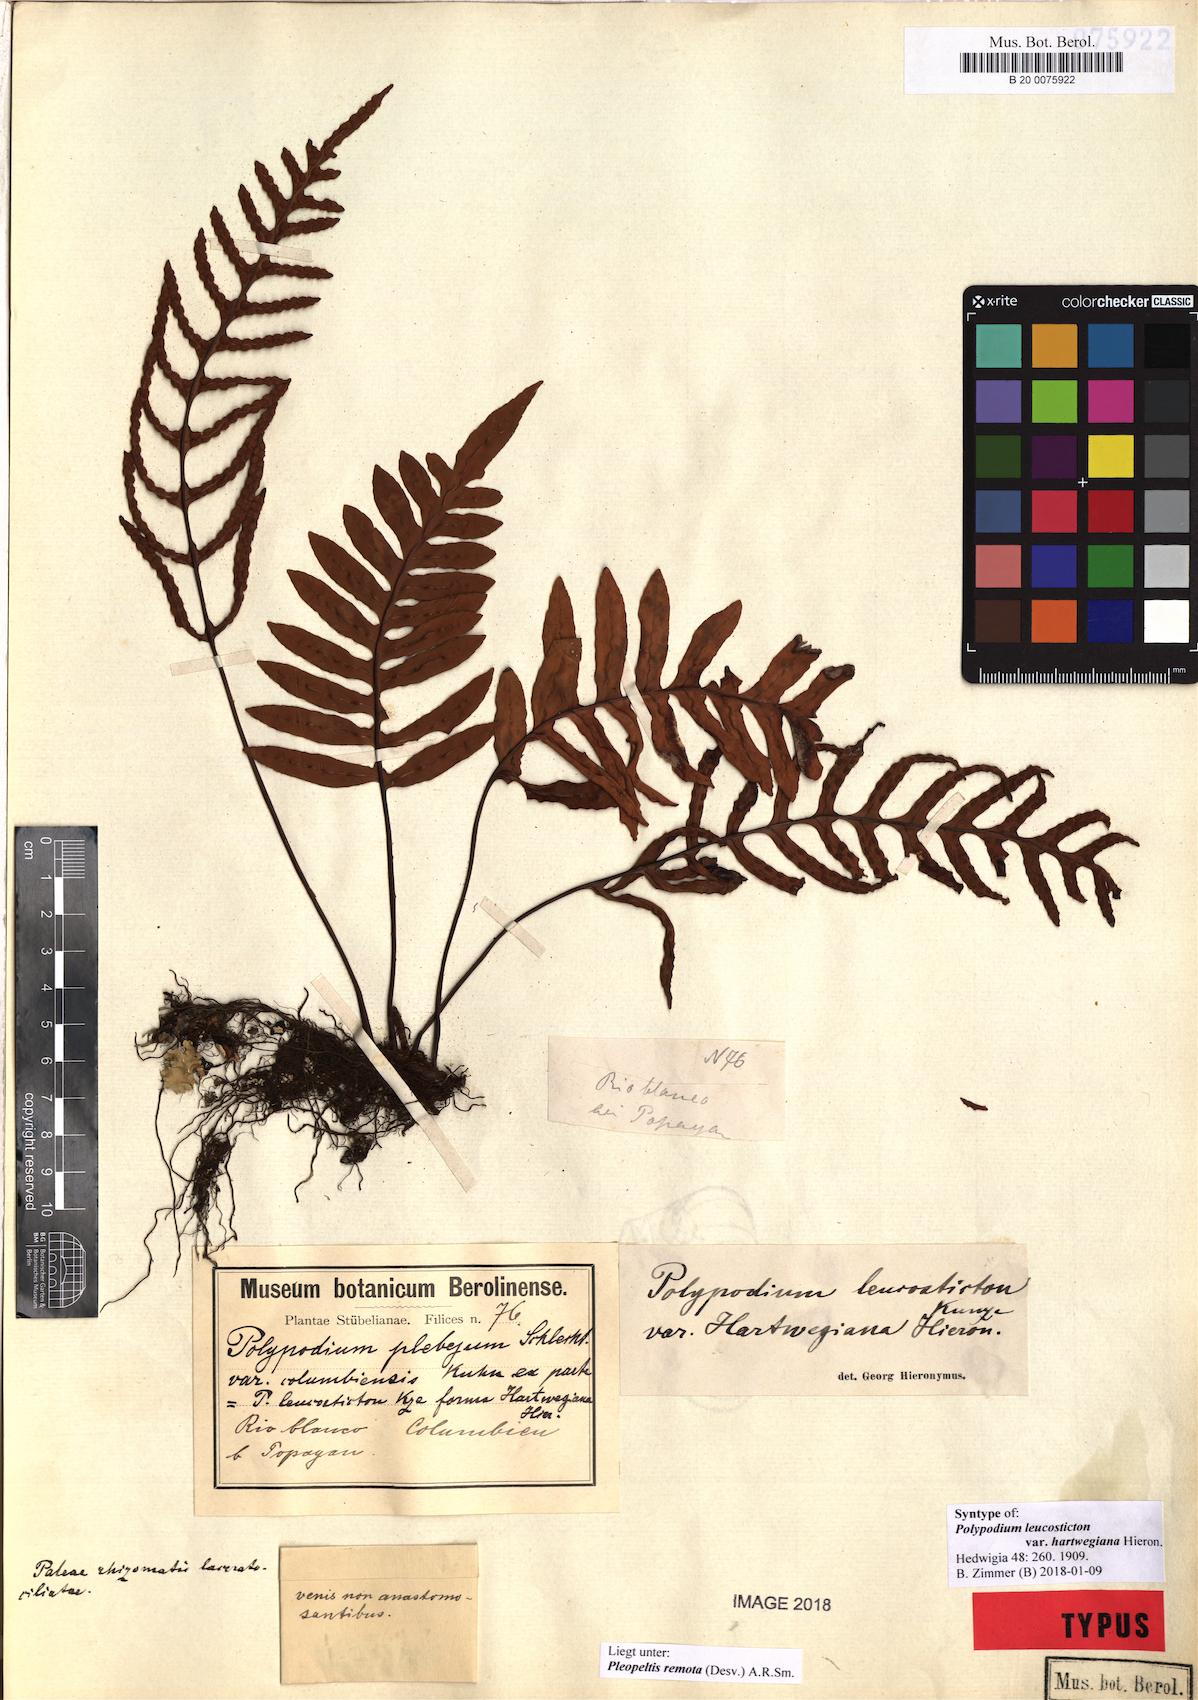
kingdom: Plantae
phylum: Tracheophyta
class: Polypodiopsida
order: Polypodiales
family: Polypodiaceae
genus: Pleopeltis
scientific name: Pleopeltis remota
